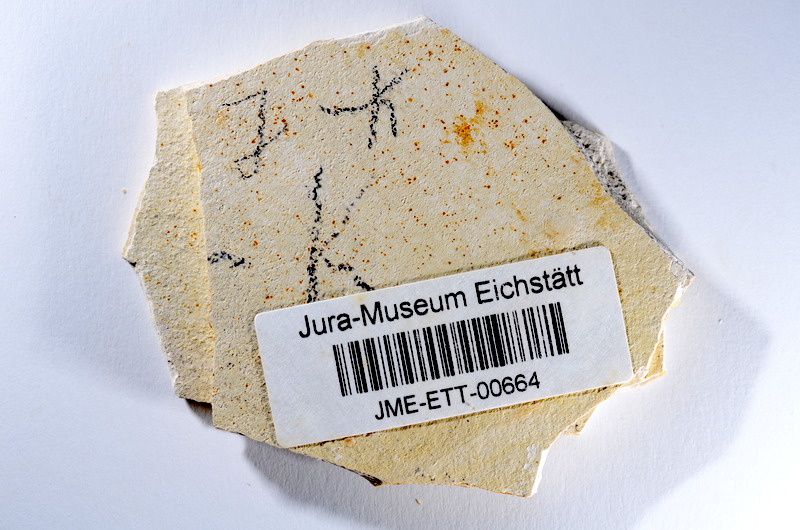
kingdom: Animalia
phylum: Chordata
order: Salmoniformes
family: Orthogonikleithridae
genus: Orthogonikleithrus
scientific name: Orthogonikleithrus hoelli
